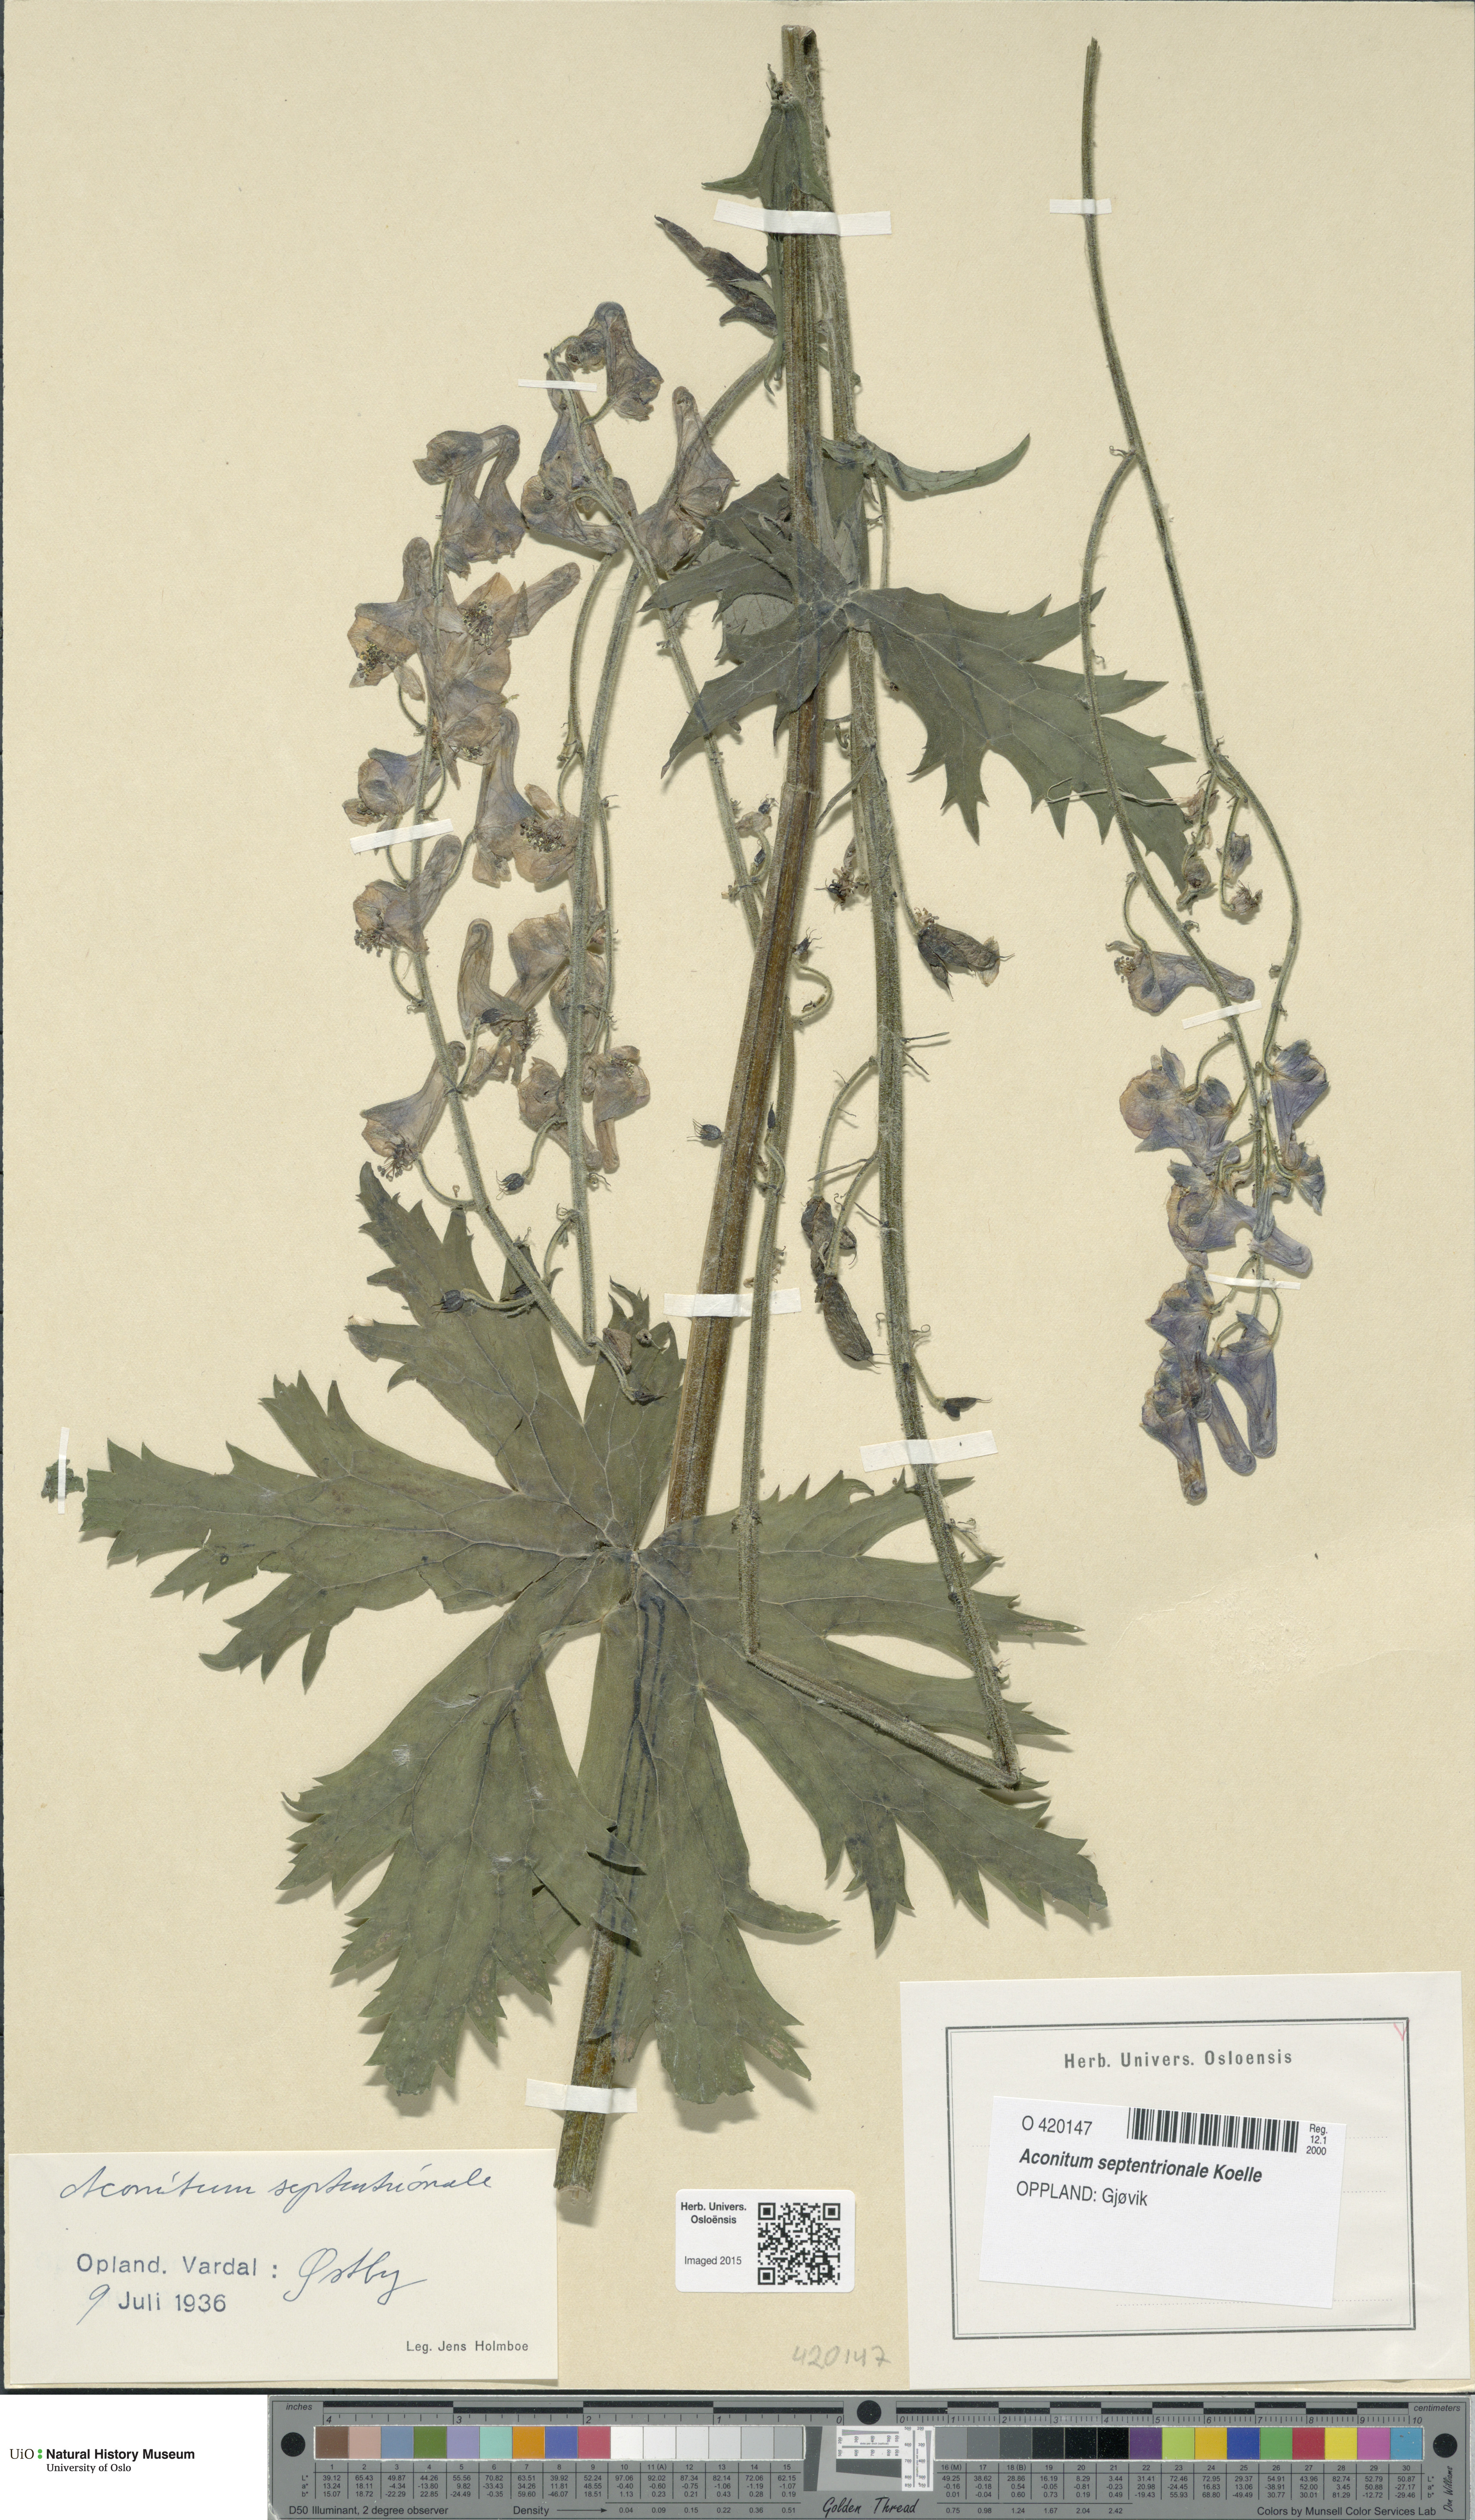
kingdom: Plantae
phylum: Tracheophyta
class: Magnoliopsida
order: Ranunculales
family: Ranunculaceae
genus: Aconitum
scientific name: Aconitum septentrionale
